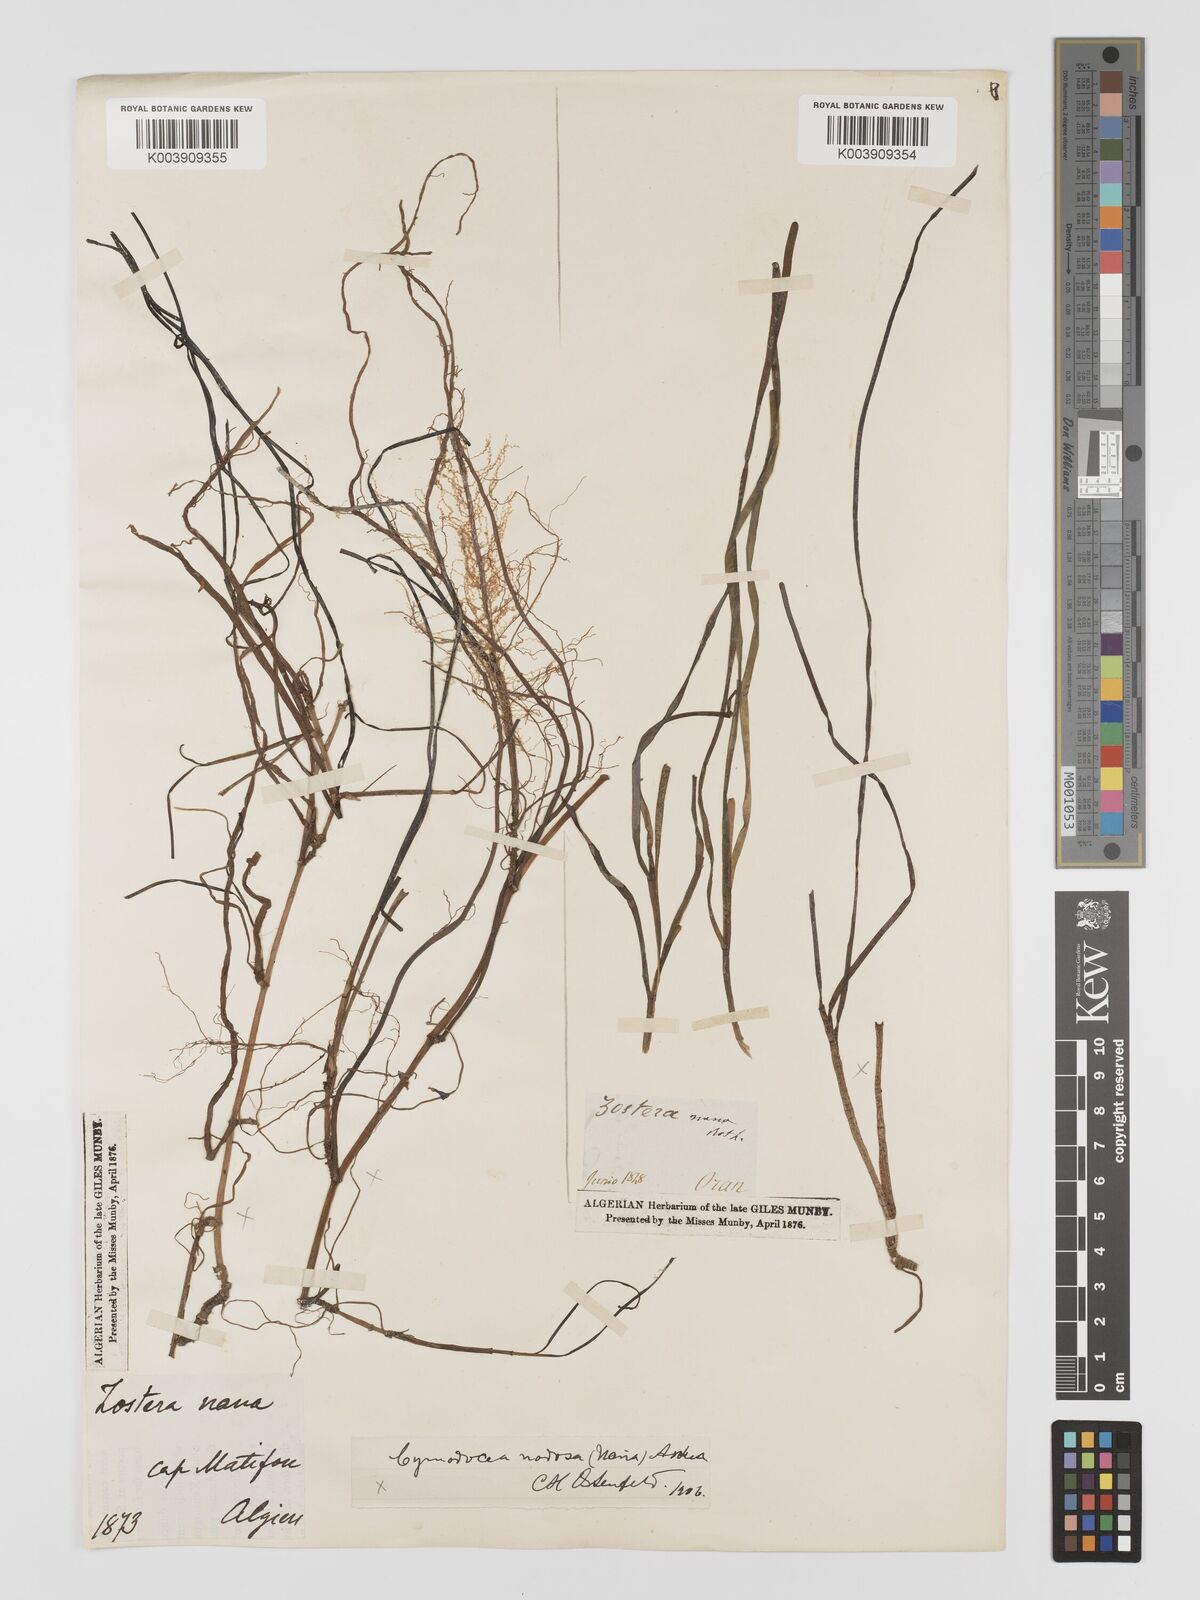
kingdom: Plantae
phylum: Tracheophyta
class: Liliopsida
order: Alismatales
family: Cymodoceaceae
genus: Cymodocea
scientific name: Cymodocea nodosa
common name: Slender seagrass
